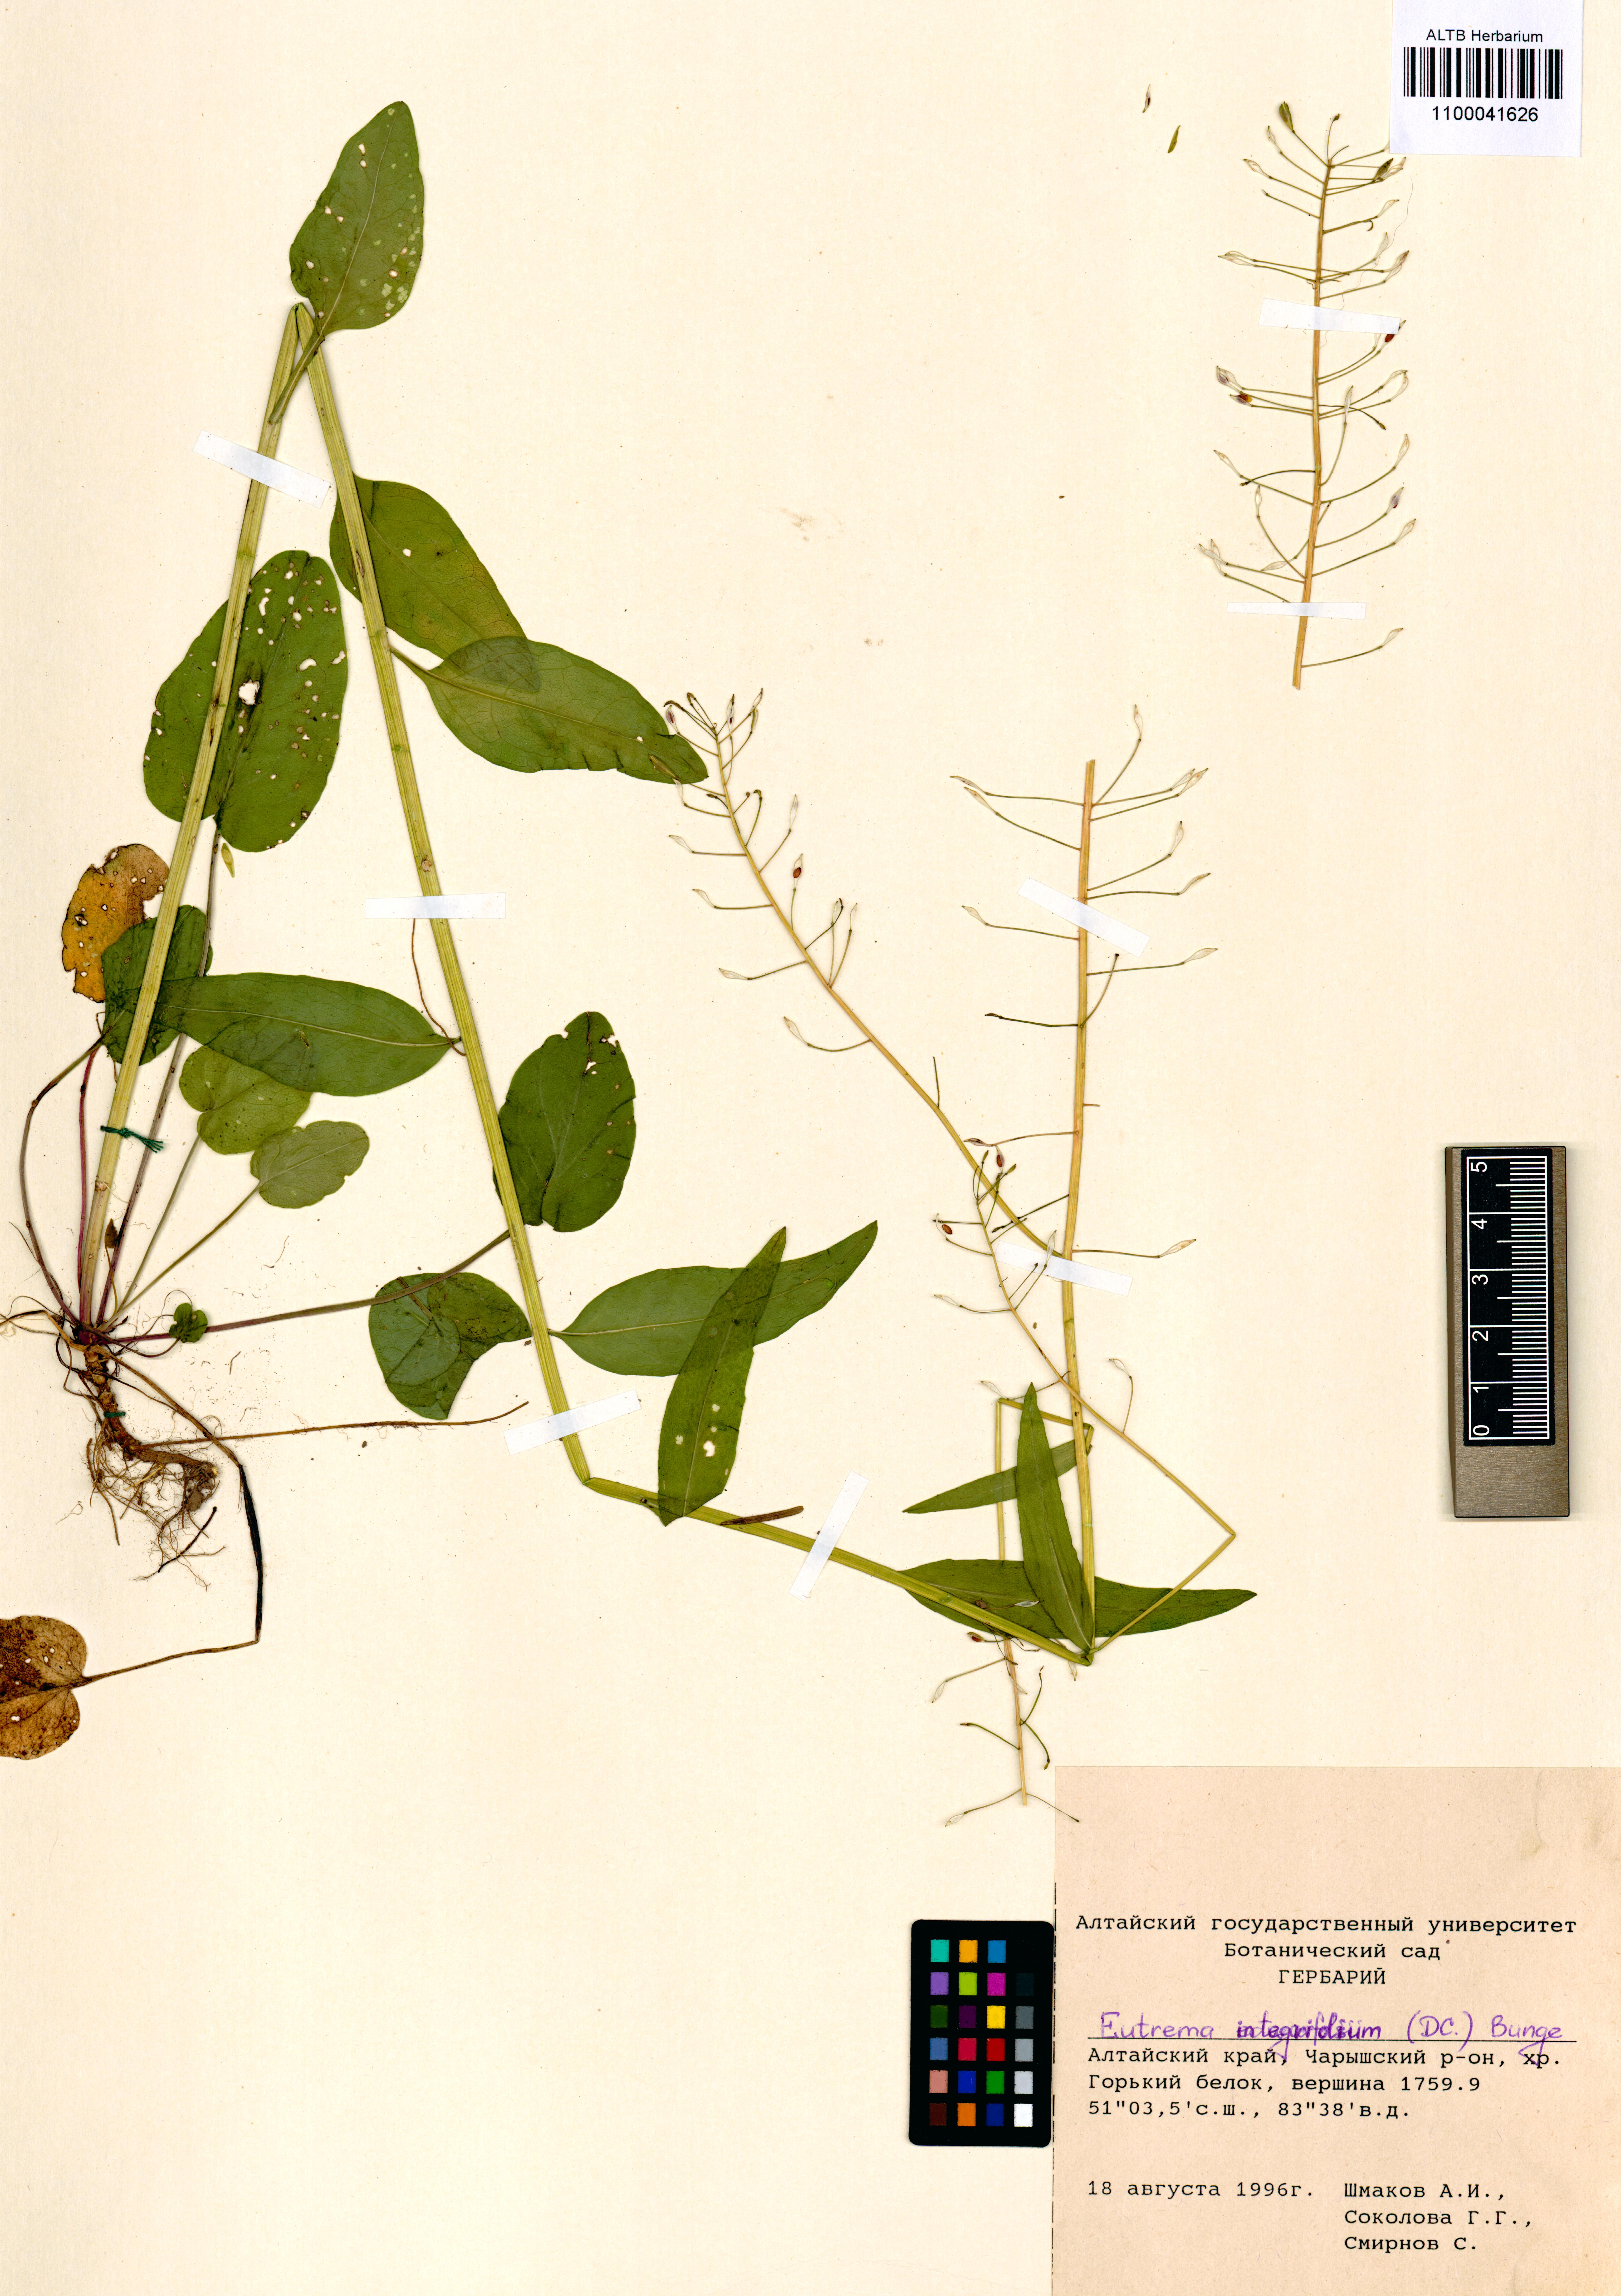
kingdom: Plantae
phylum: Tracheophyta
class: Magnoliopsida
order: Brassicales
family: Brassicaceae
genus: Eutrema
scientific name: Eutrema integrifolium
